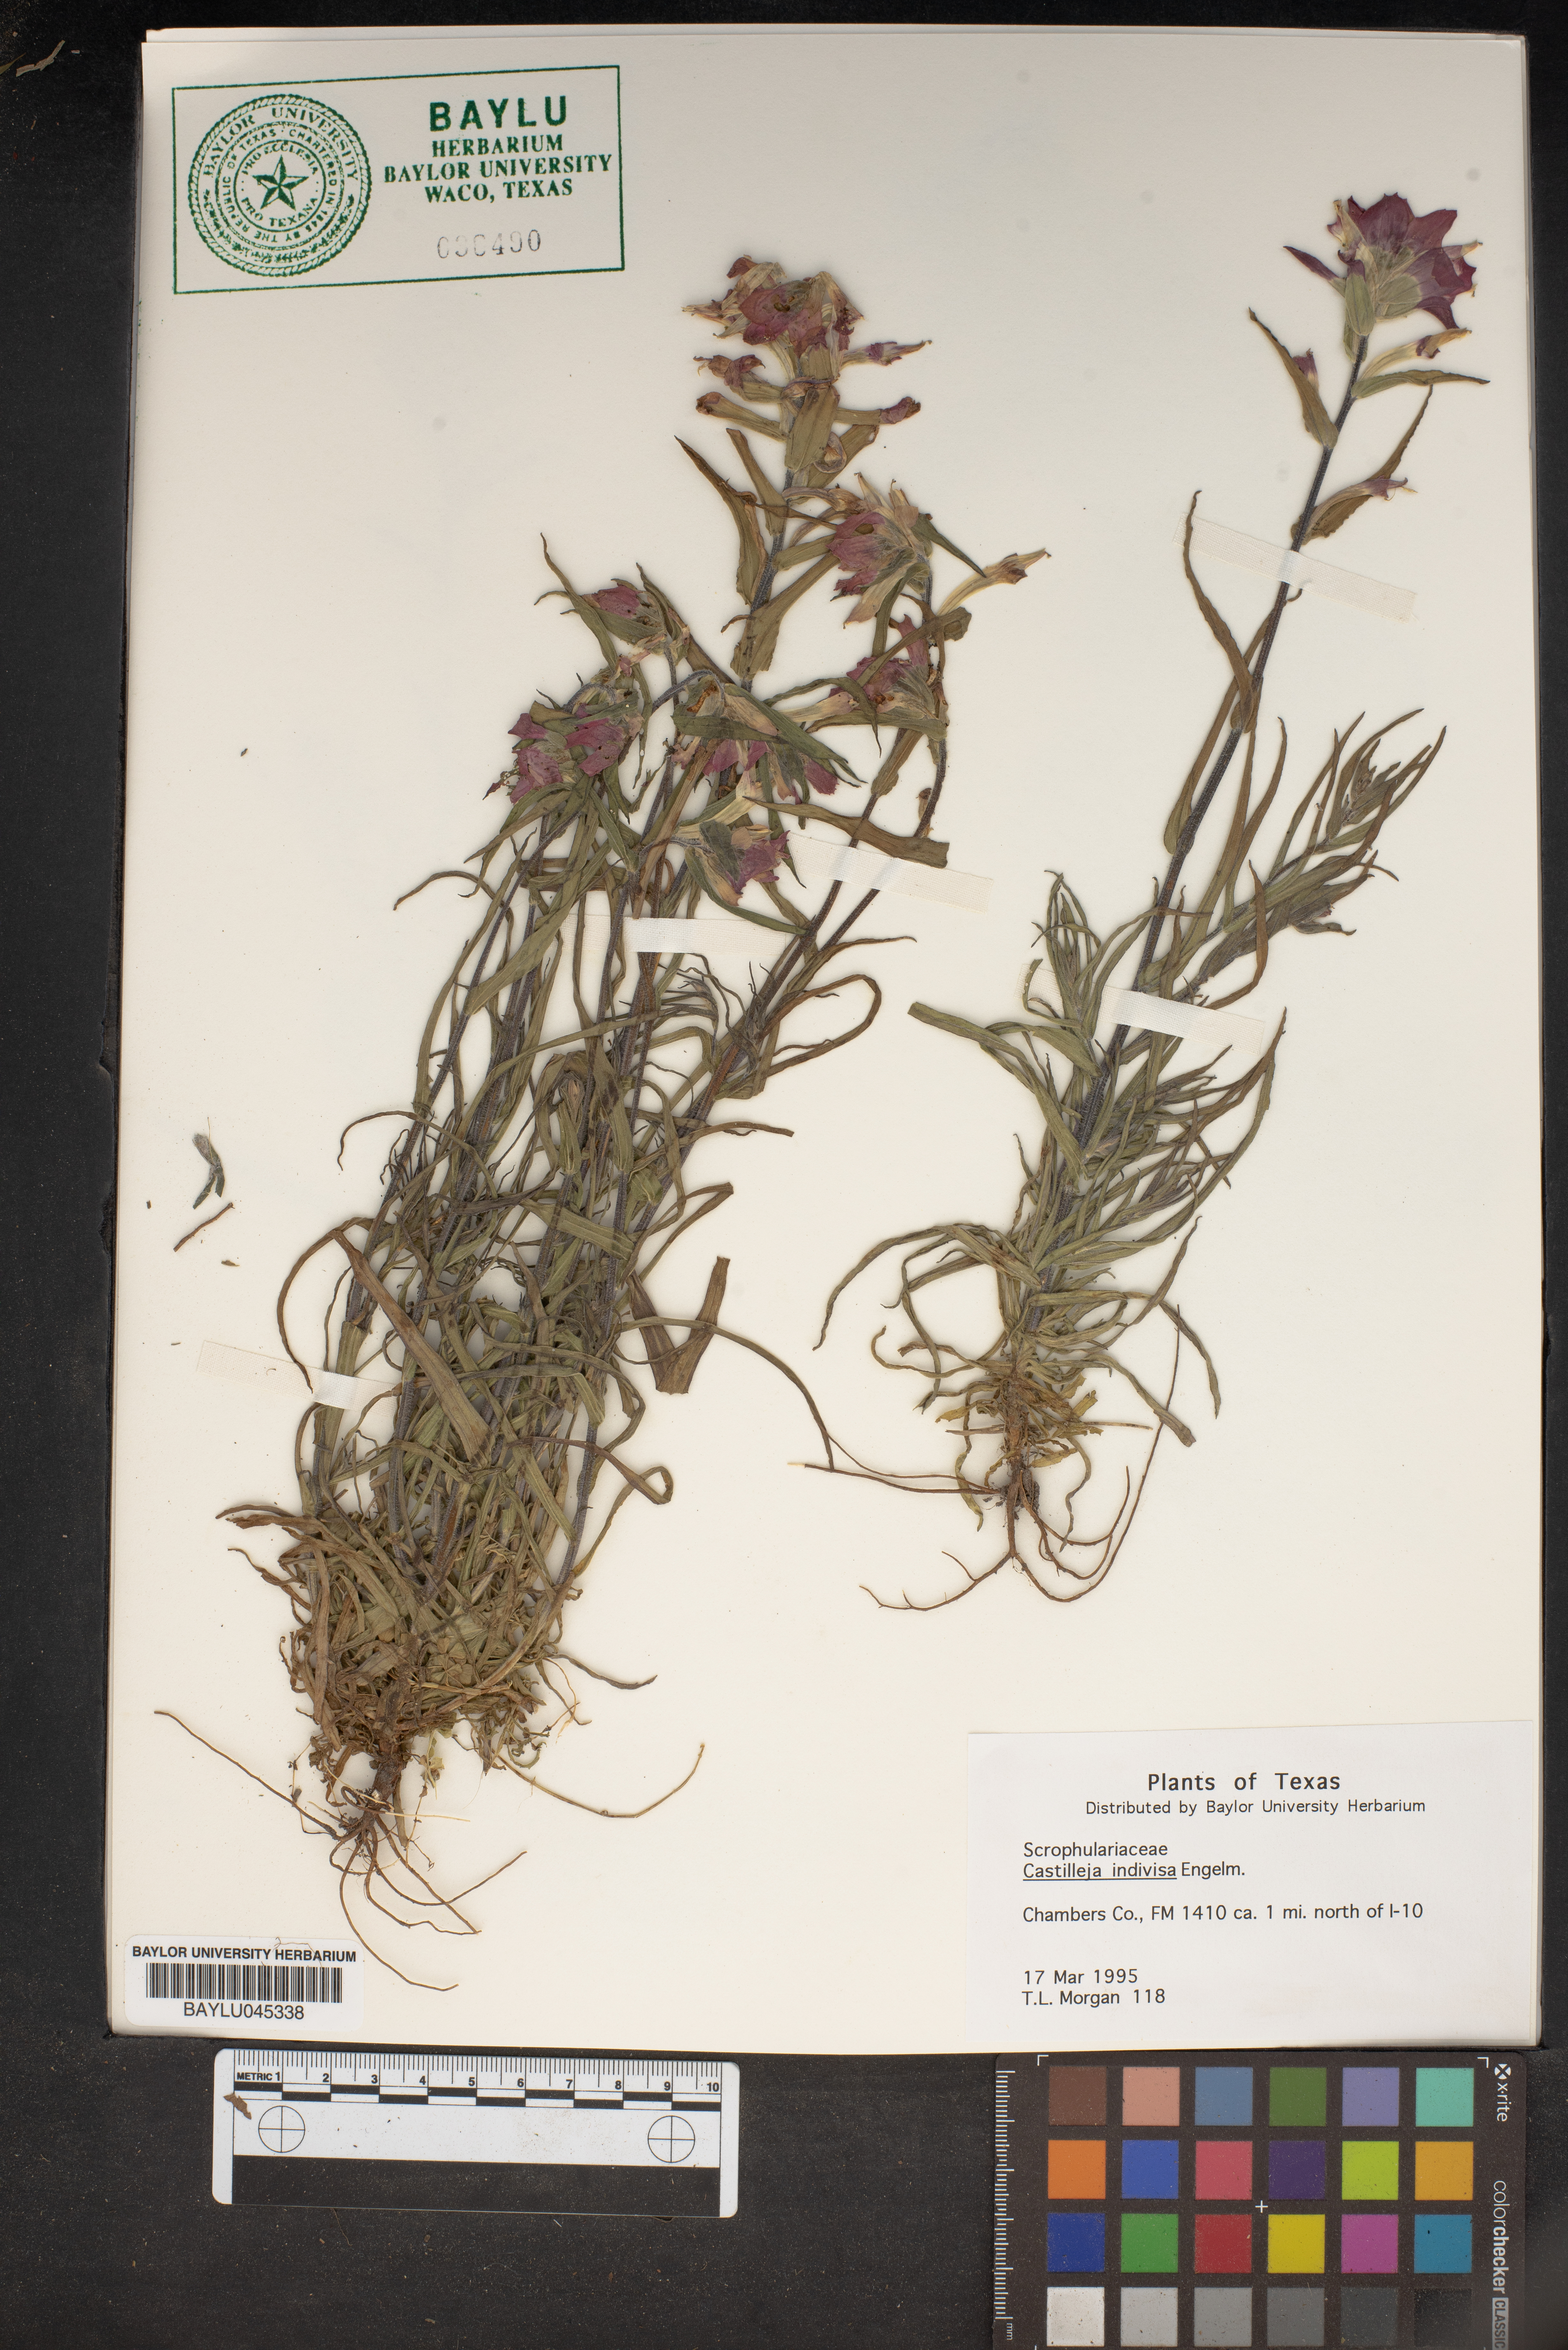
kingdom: Plantae
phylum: Tracheophyta
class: Magnoliopsida
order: Lamiales
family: Orobanchaceae
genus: Castilleja
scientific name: Castilleja indivisa
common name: Texas paintbrush
